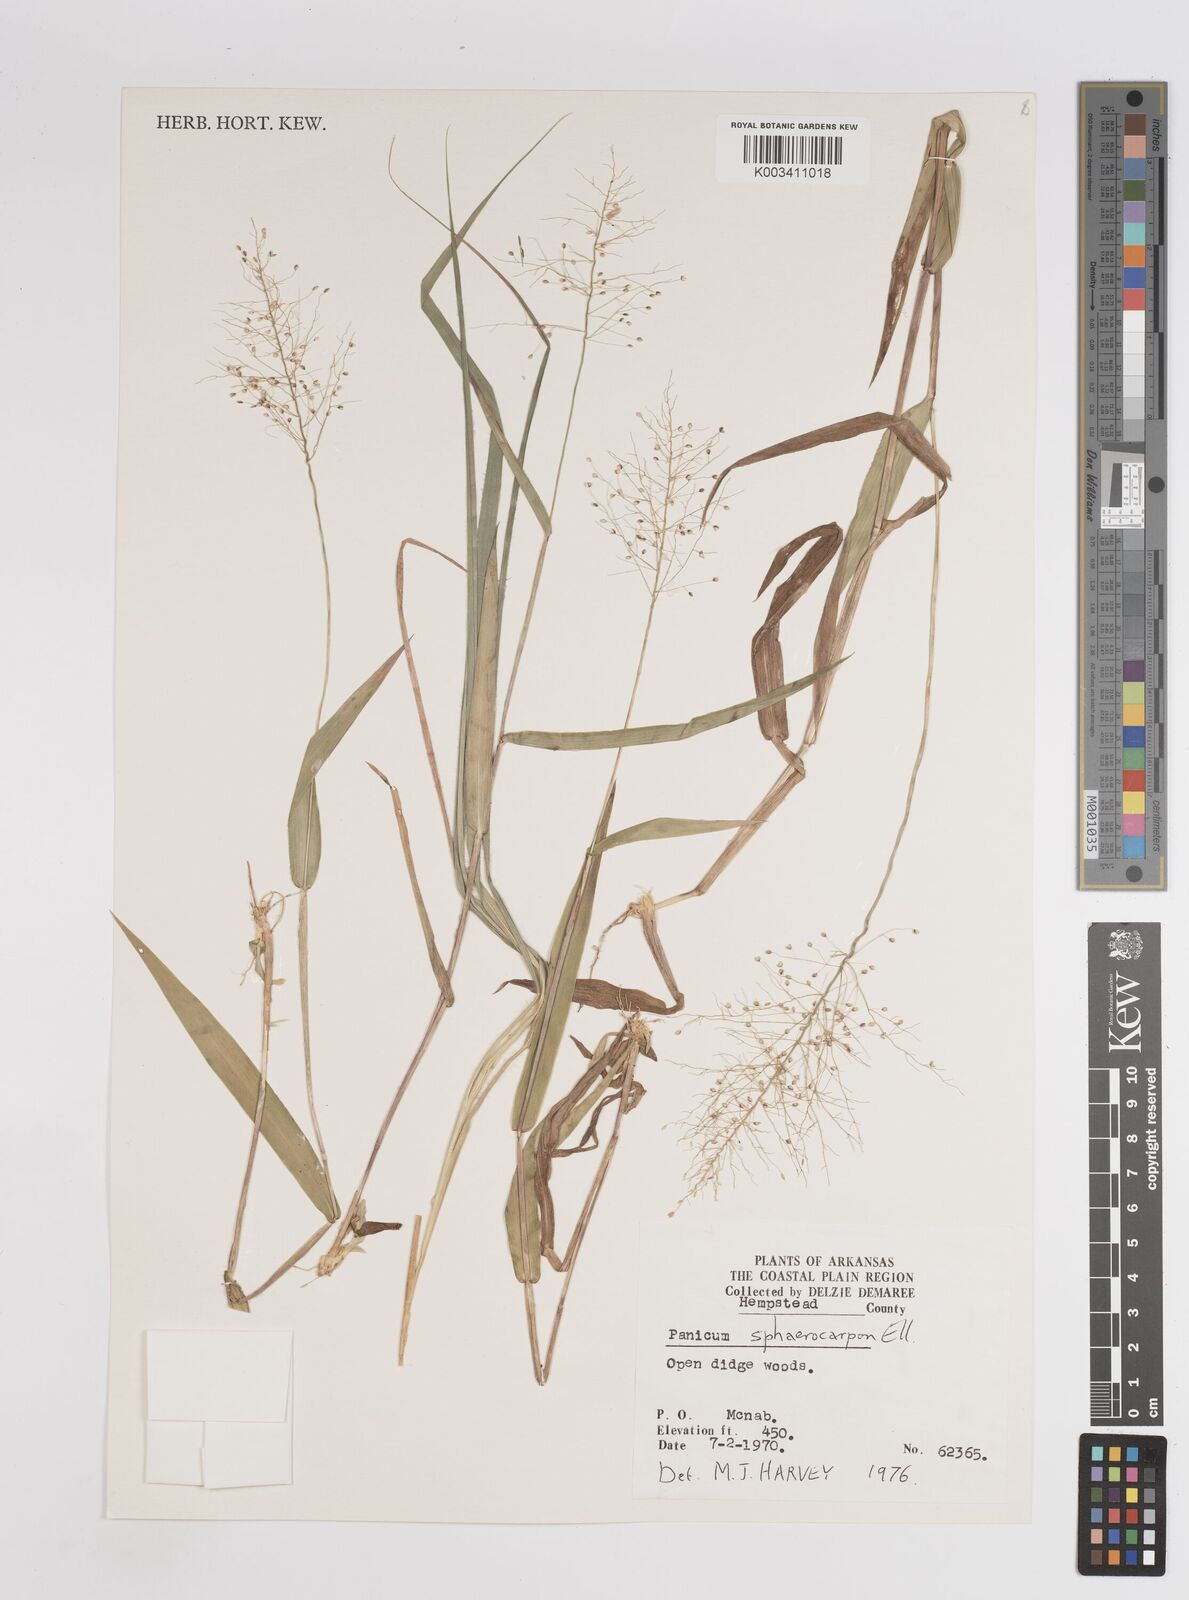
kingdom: Plantae
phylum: Tracheophyta
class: Liliopsida
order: Poales
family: Poaceae
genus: Setaria
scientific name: Setaria tenax
